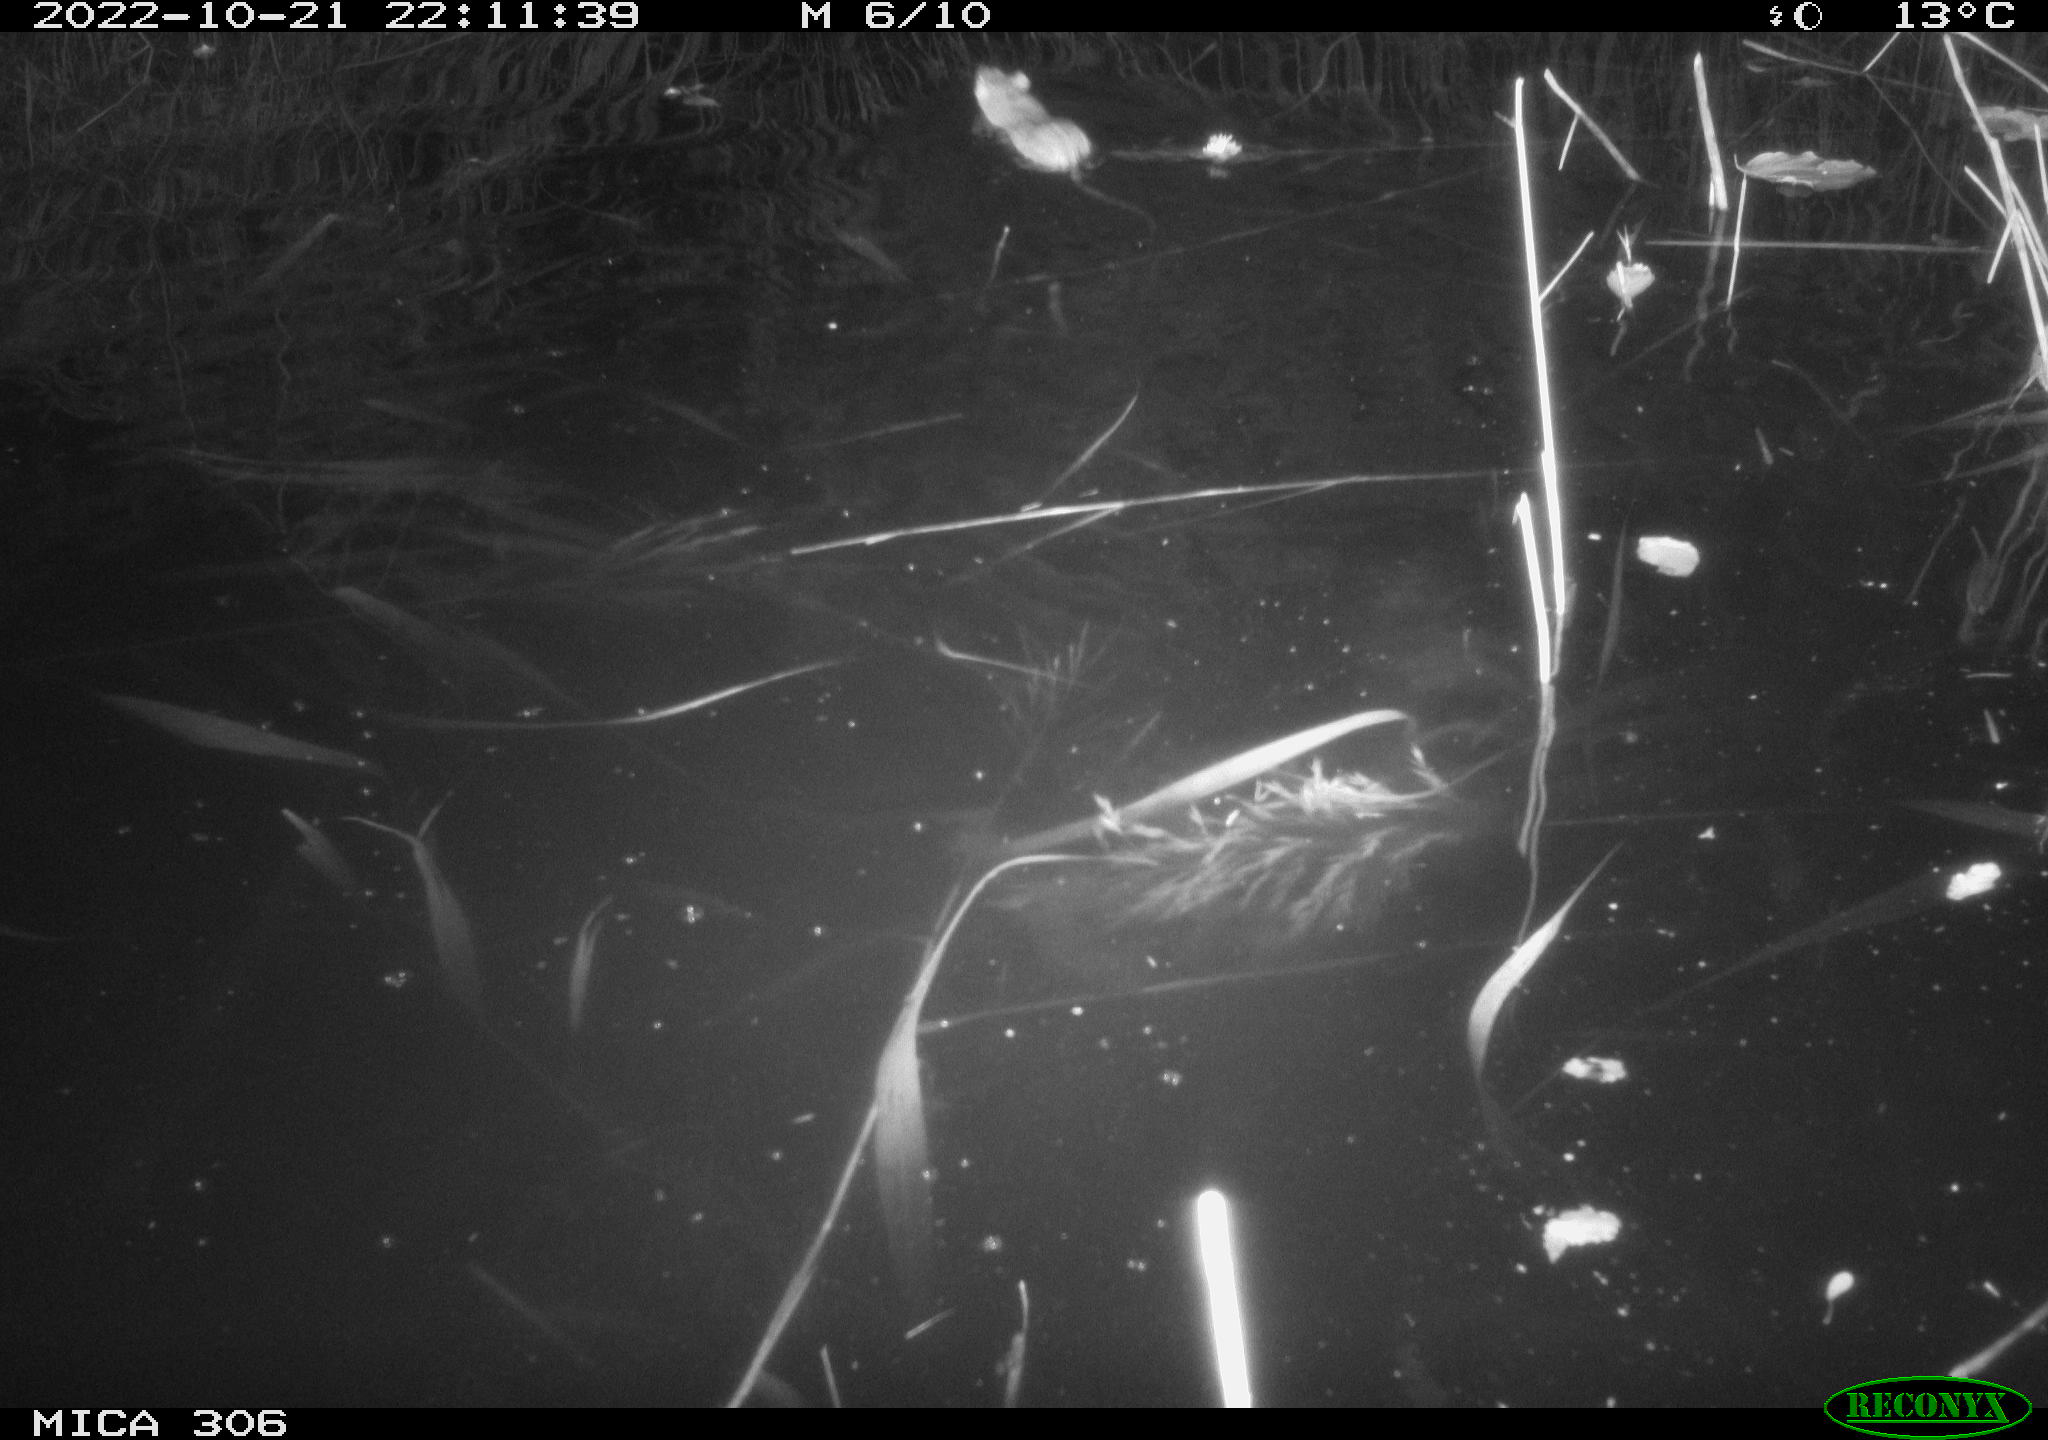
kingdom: Animalia
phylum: Chordata
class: Mammalia
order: Rodentia
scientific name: Rodentia
